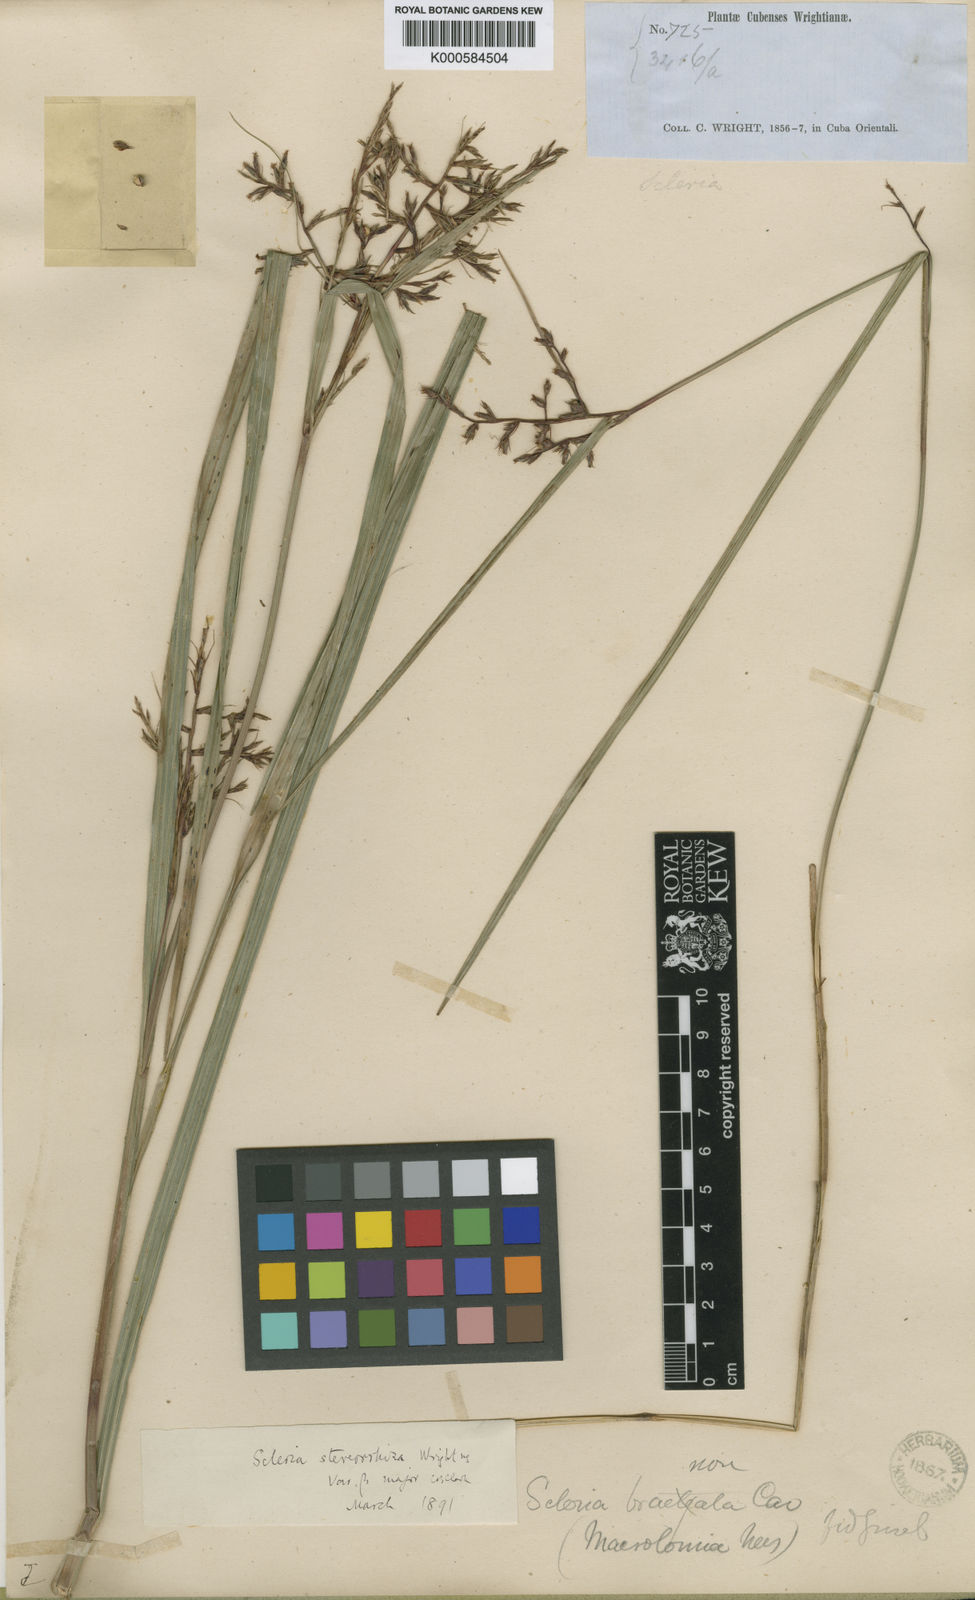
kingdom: Plantae
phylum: Tracheophyta
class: Liliopsida
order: Poales
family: Cyperaceae
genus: Scleria
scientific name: Scleria
